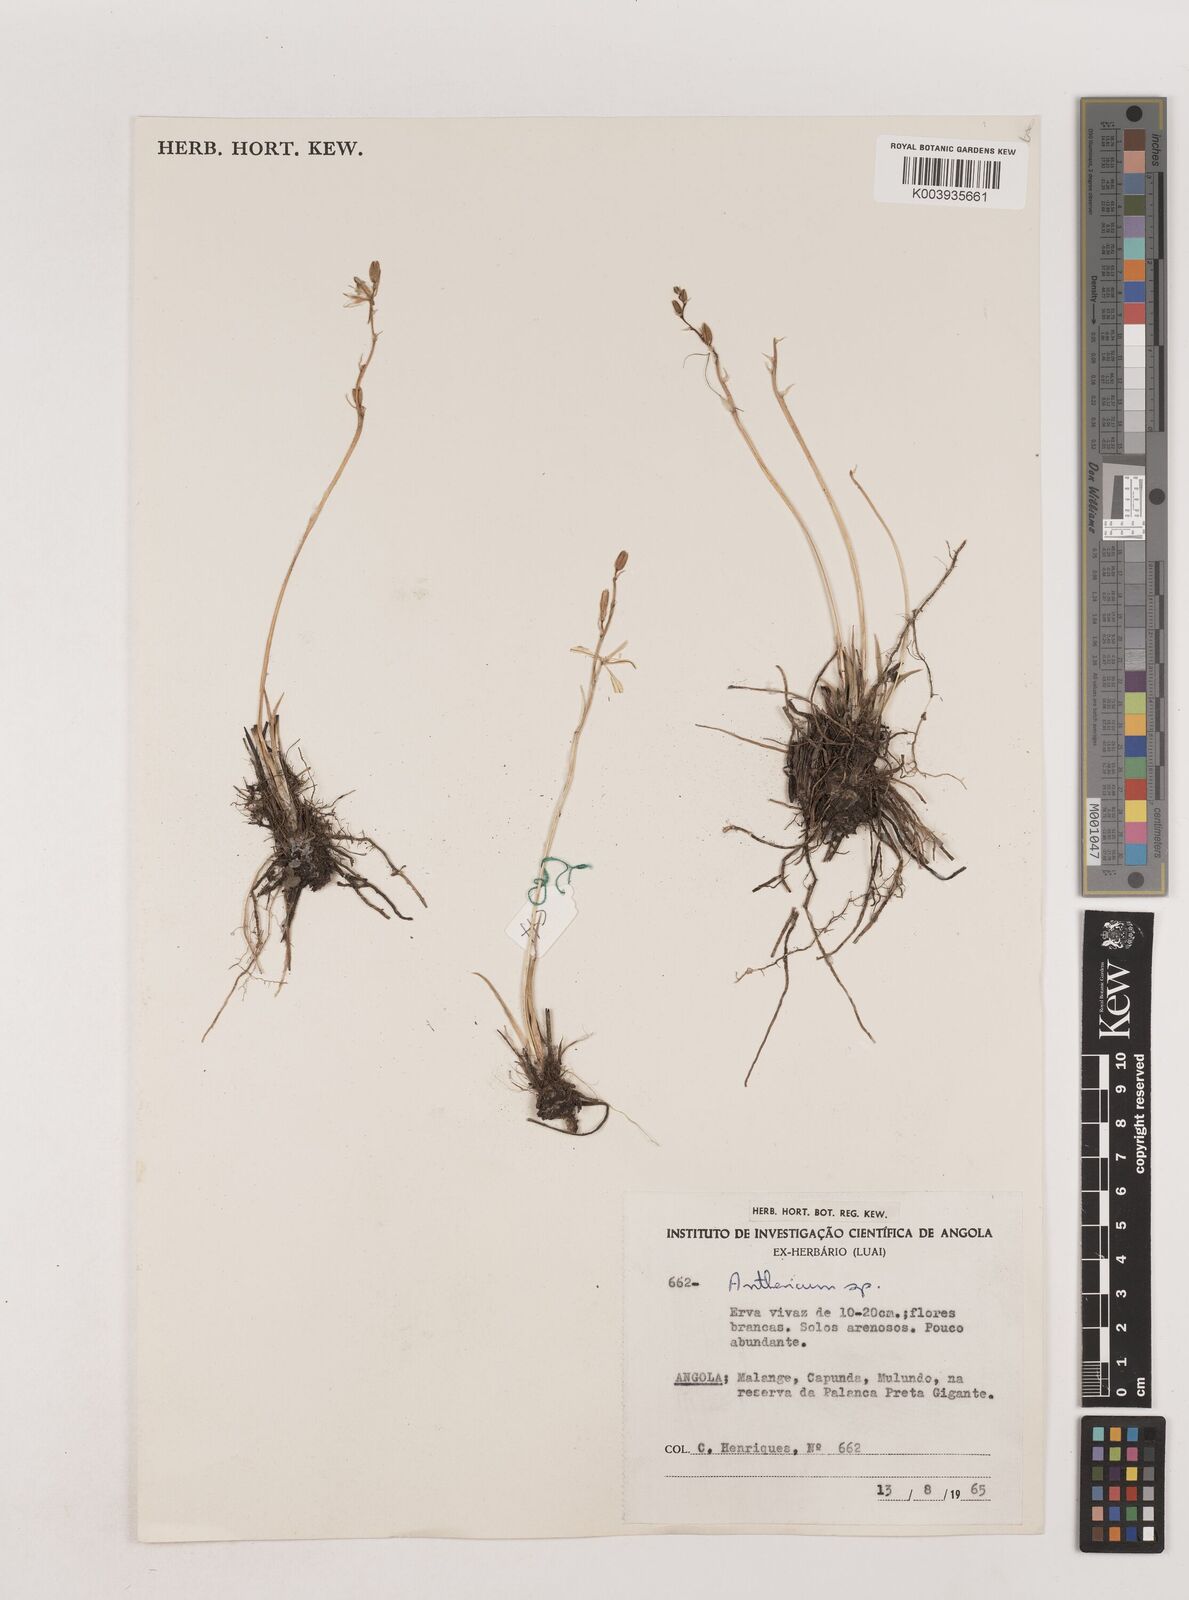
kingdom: Plantae
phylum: Tracheophyta
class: Liliopsida
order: Asparagales
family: Asparagaceae
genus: Chlorophytum
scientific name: Chlorophytum
